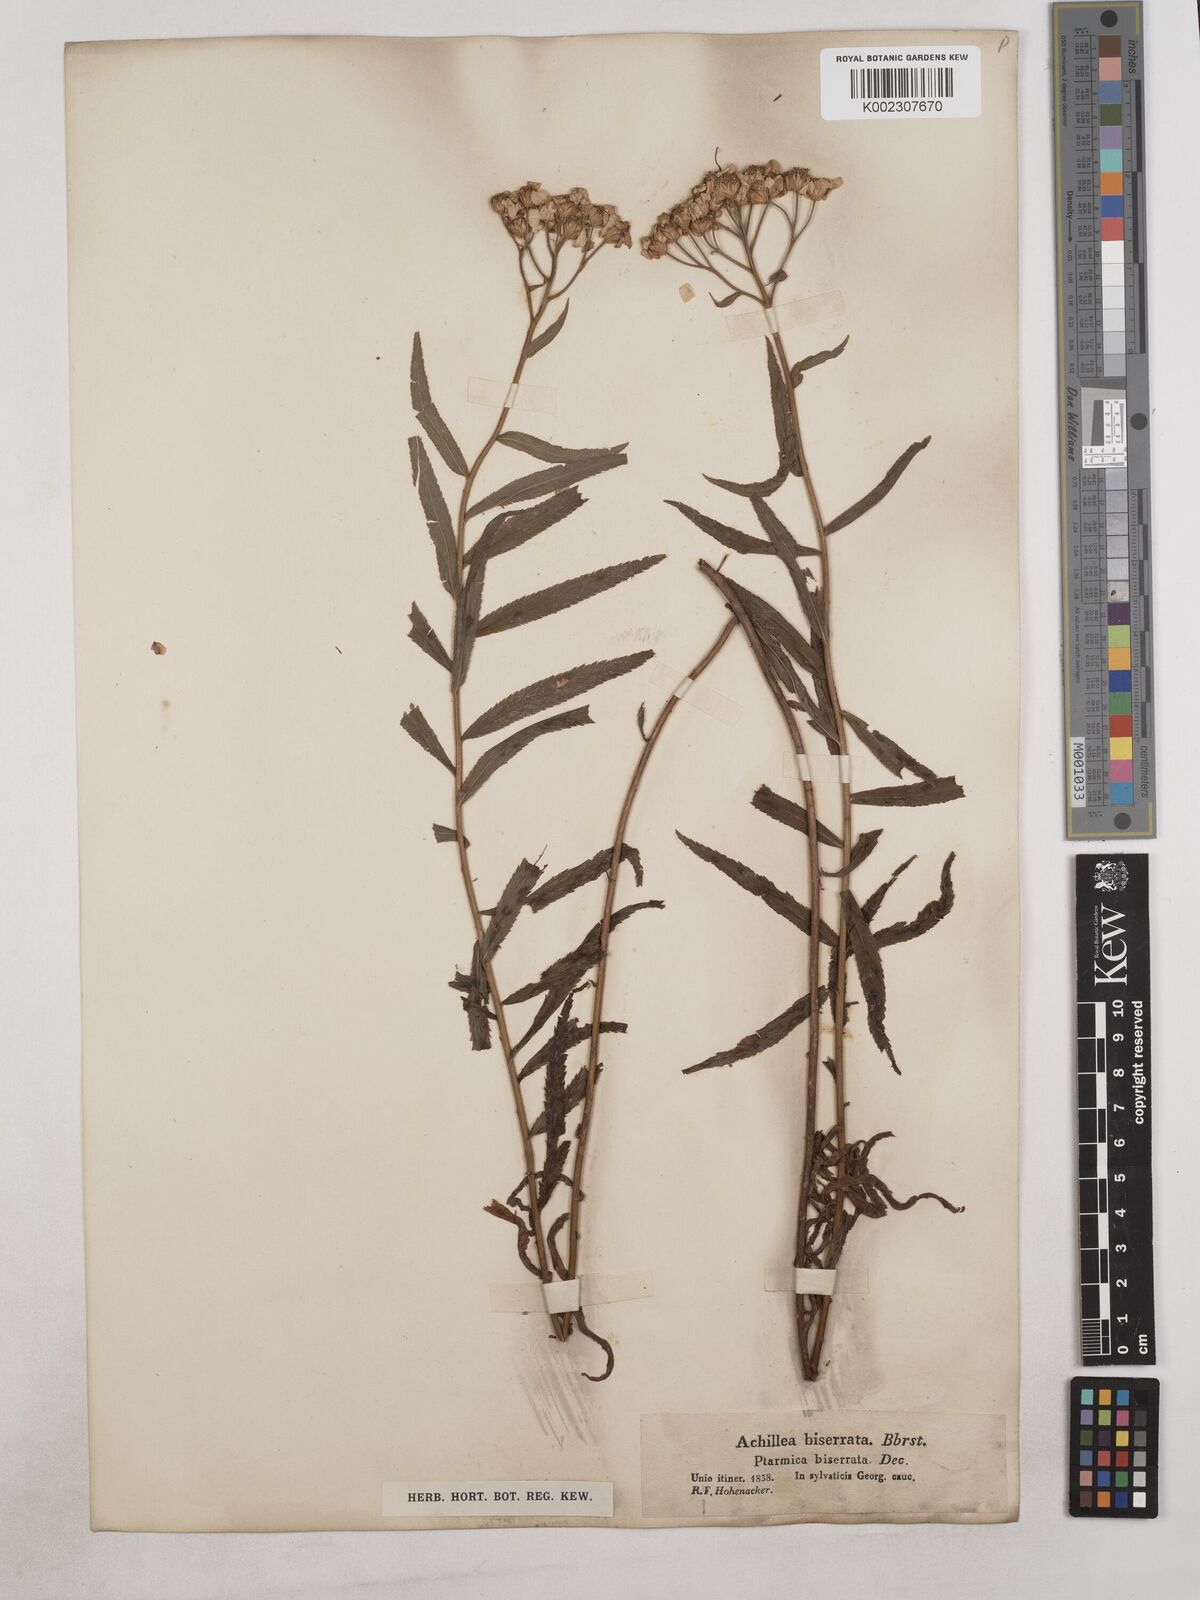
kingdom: Plantae
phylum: Tracheophyta
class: Magnoliopsida
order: Asterales
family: Asteraceae
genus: Achillea
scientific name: Achillea biserrata
